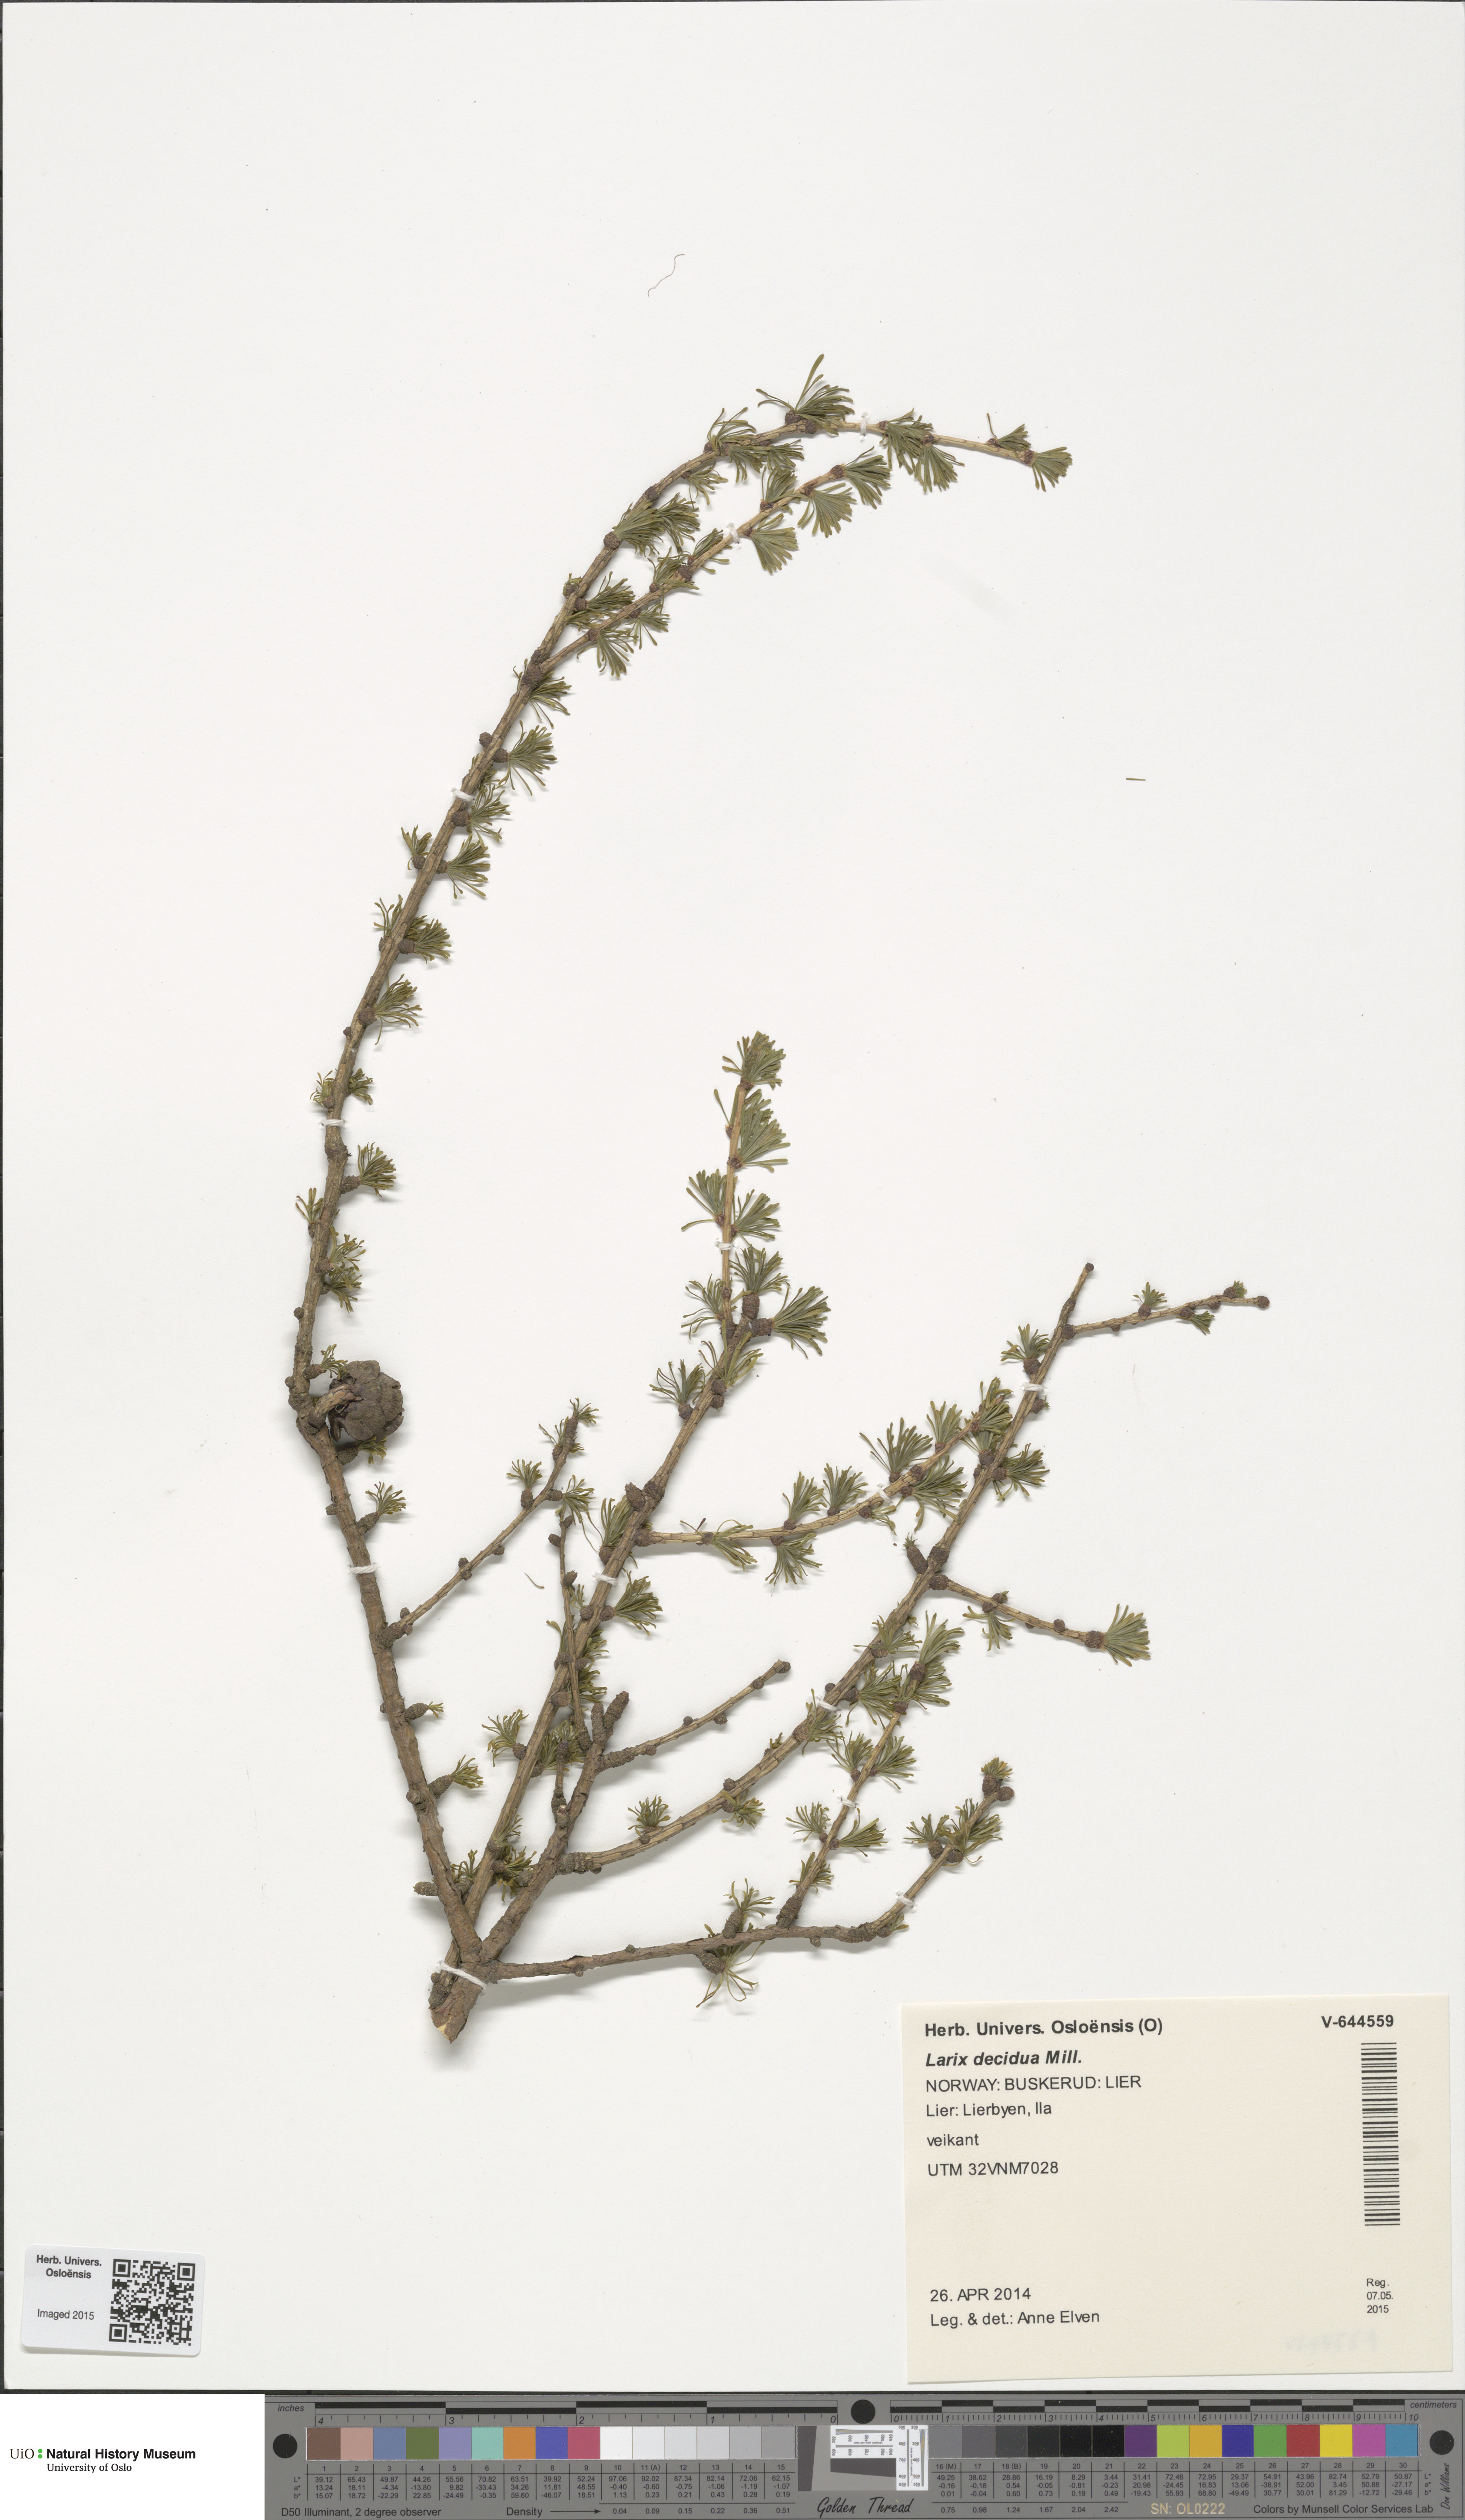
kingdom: Plantae
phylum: Tracheophyta
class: Pinopsida
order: Pinales
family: Pinaceae
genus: Larix
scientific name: Larix decidua
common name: European larch
